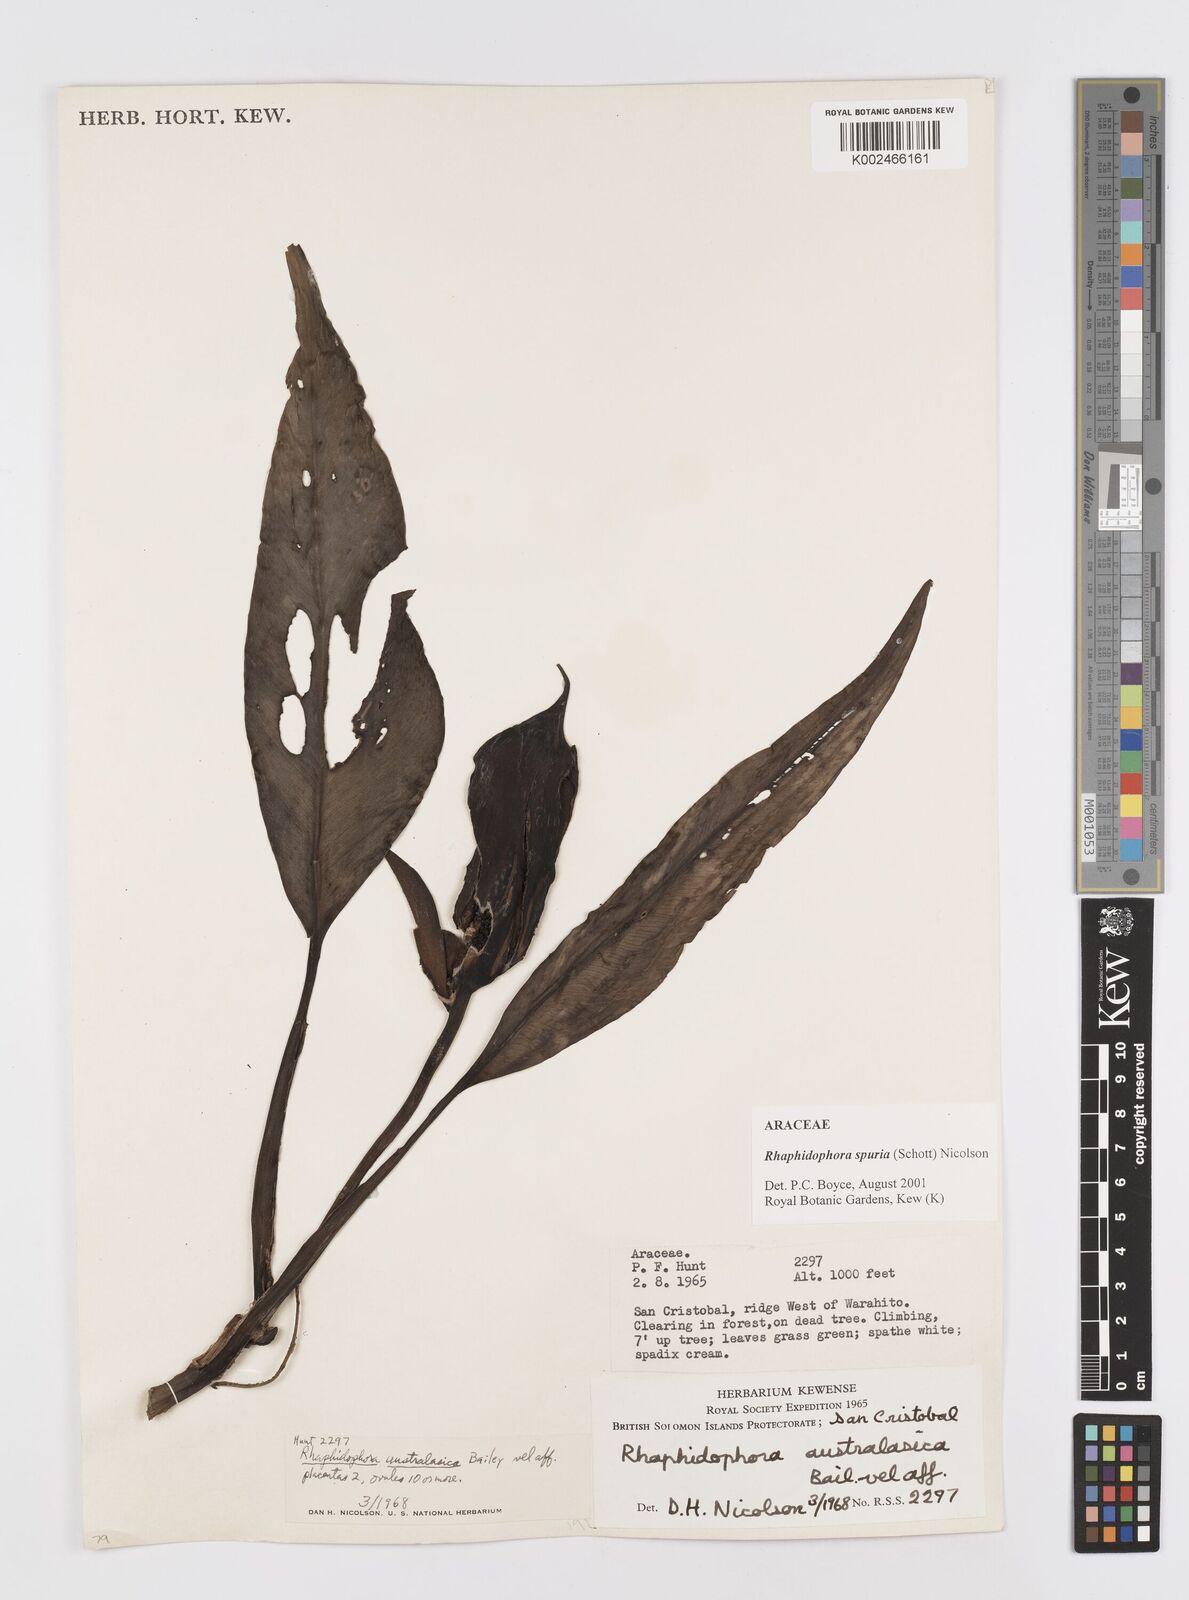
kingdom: Plantae
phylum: Tracheophyta
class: Liliopsida
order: Alismatales
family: Araceae
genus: Rhaphidophora
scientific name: Rhaphidophora spuria
